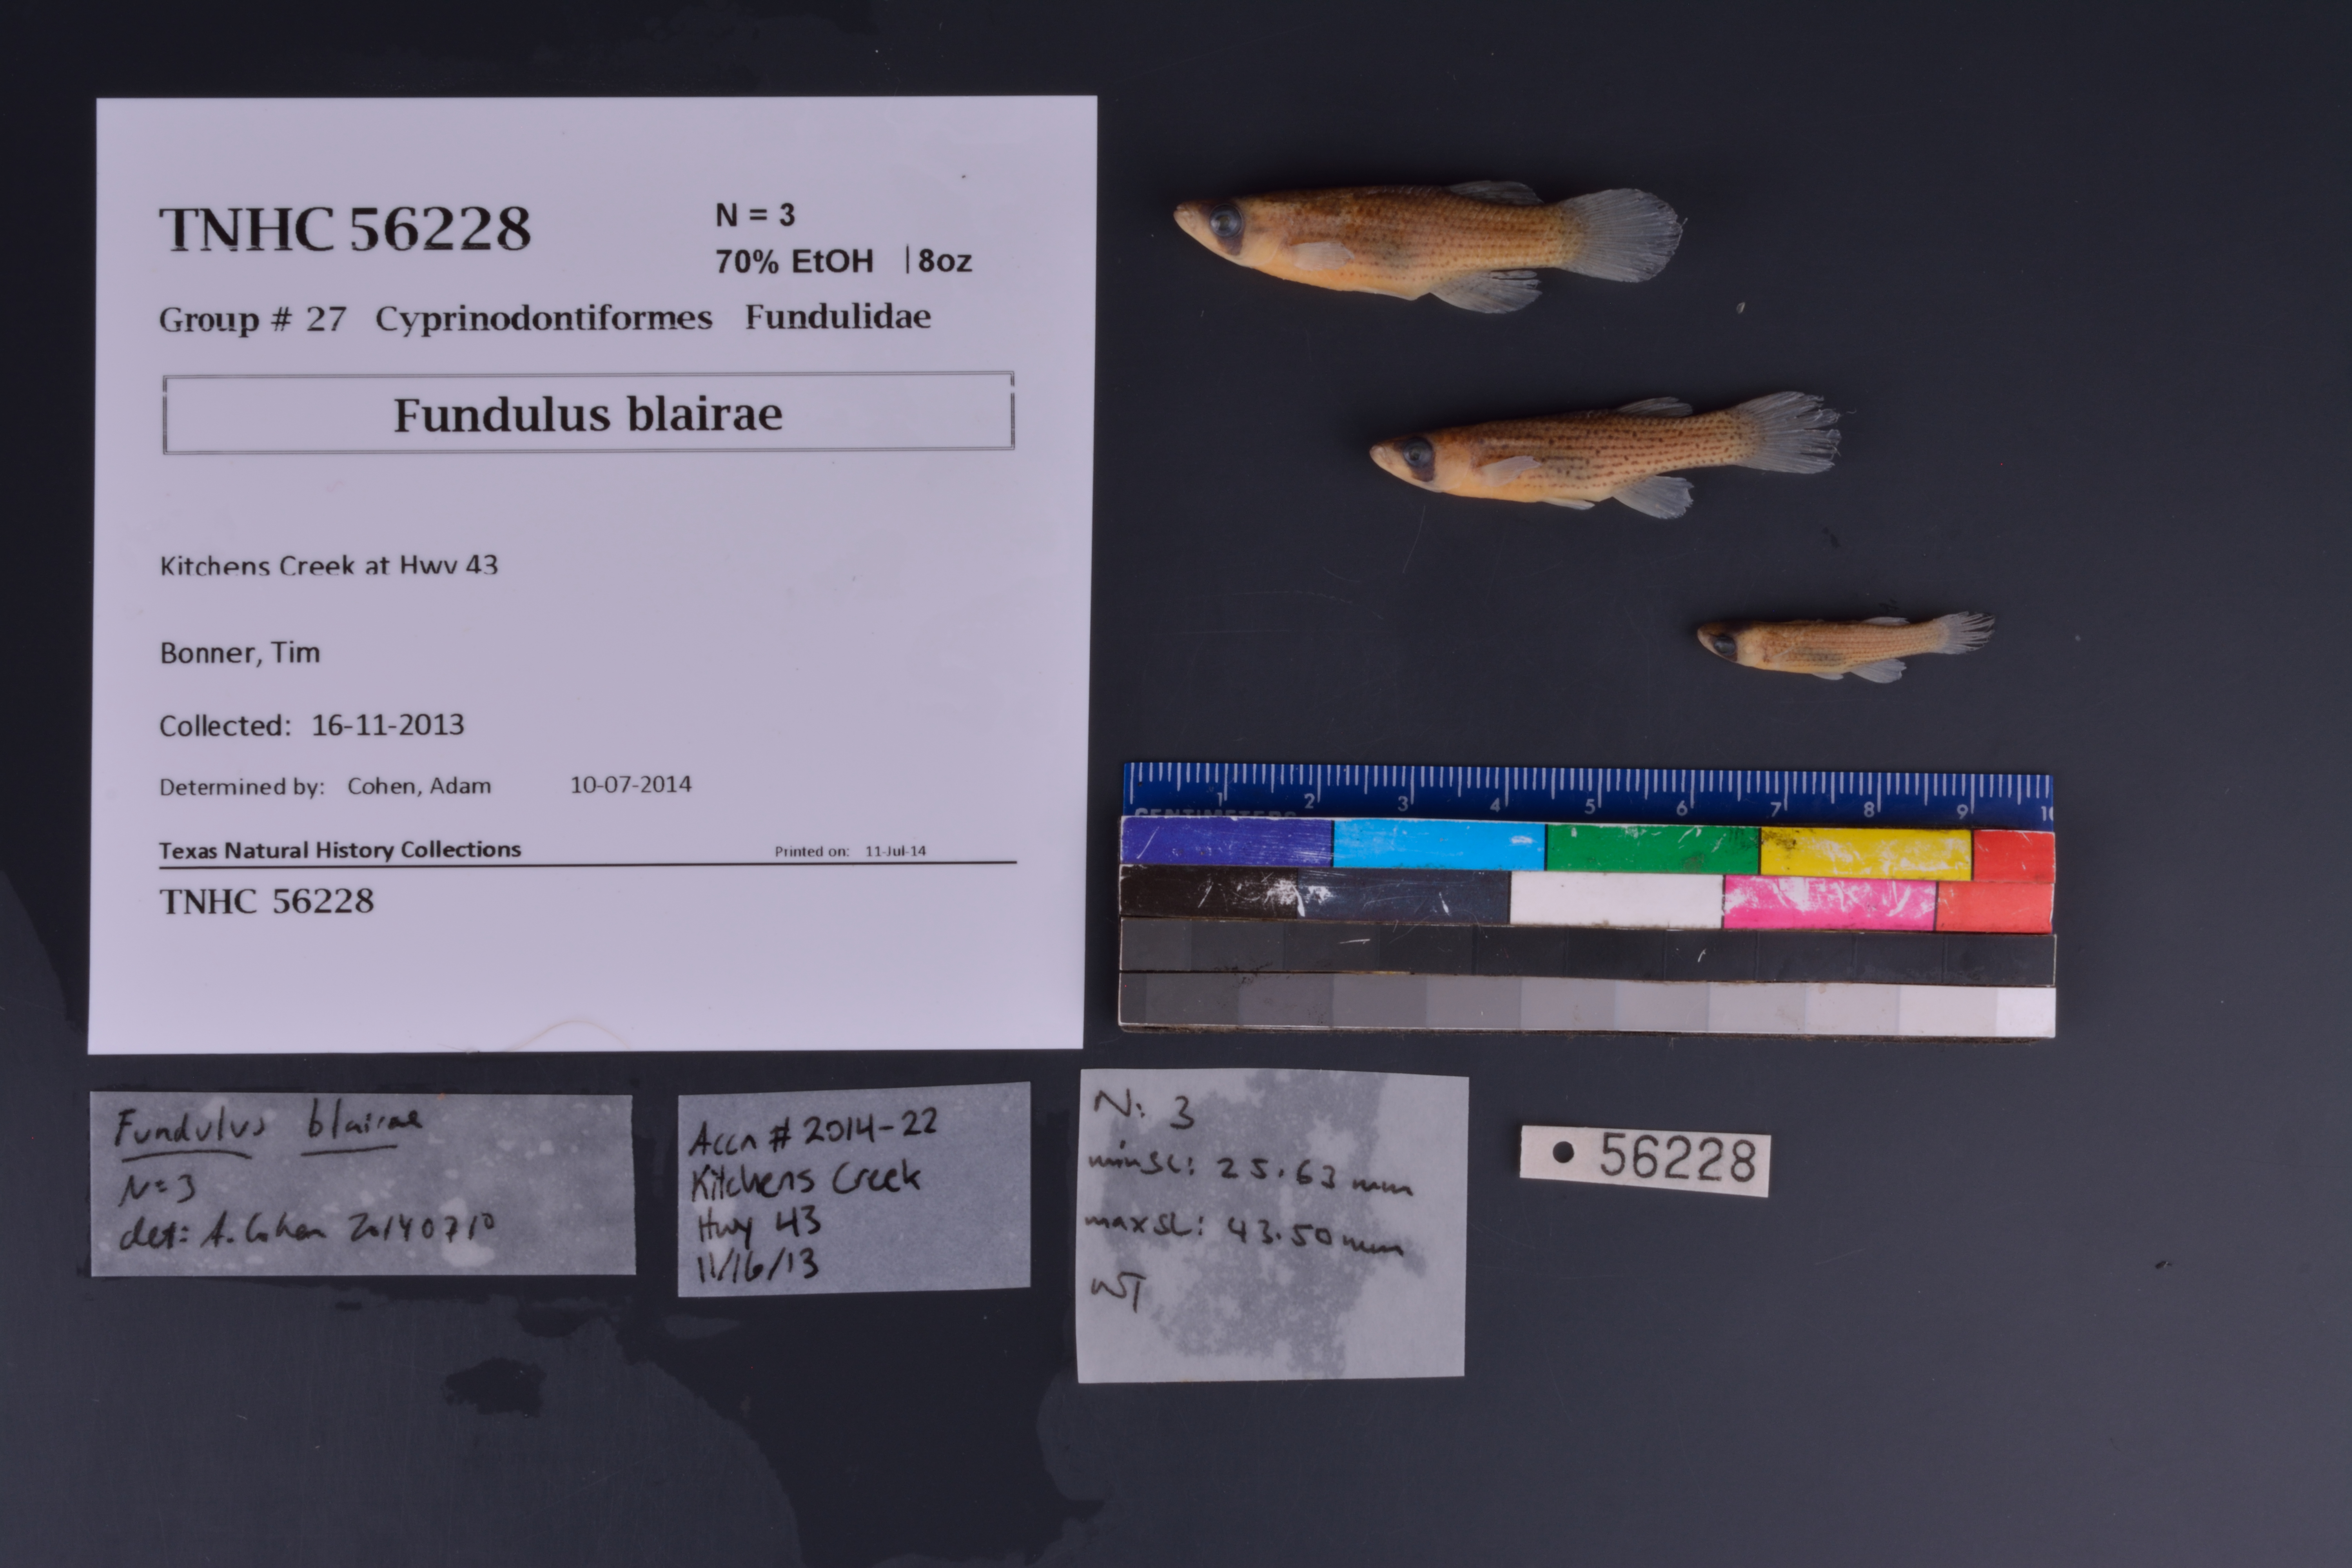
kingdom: Animalia
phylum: Chordata
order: Cyprinodontiformes
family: Fundulidae
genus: Fundulus
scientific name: Fundulus blairae
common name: Lowland topminnow
